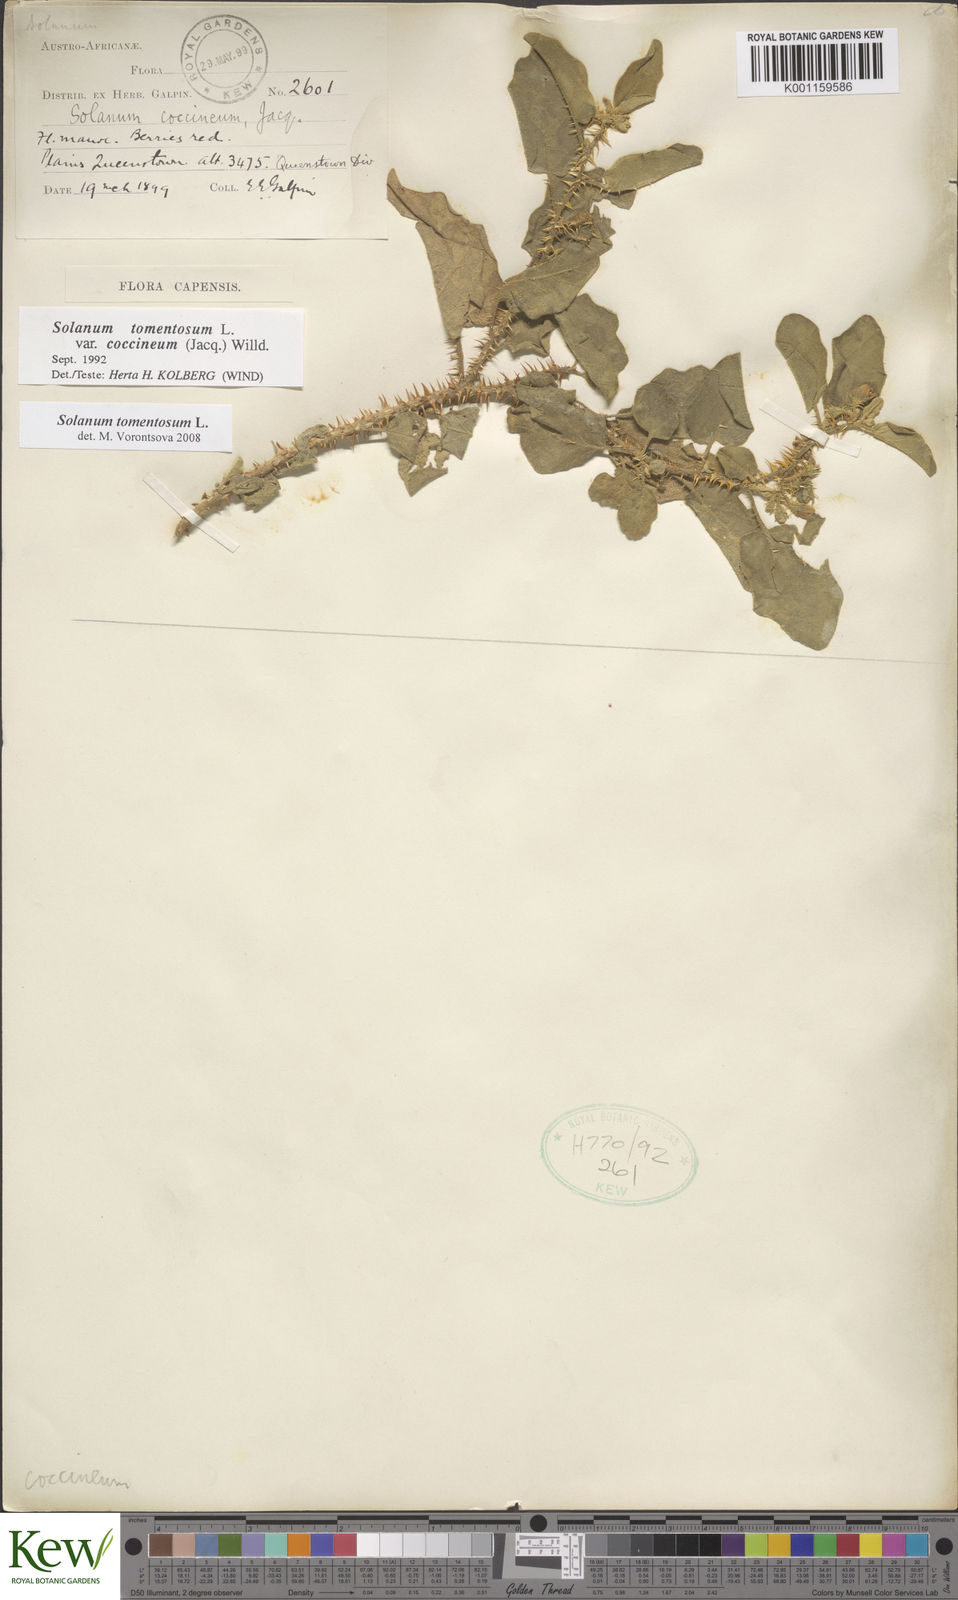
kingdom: Plantae
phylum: Tracheophyta
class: Magnoliopsida
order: Solanales
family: Solanaceae
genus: Solanum
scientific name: Solanum tomentosum
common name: Wild aubergine
